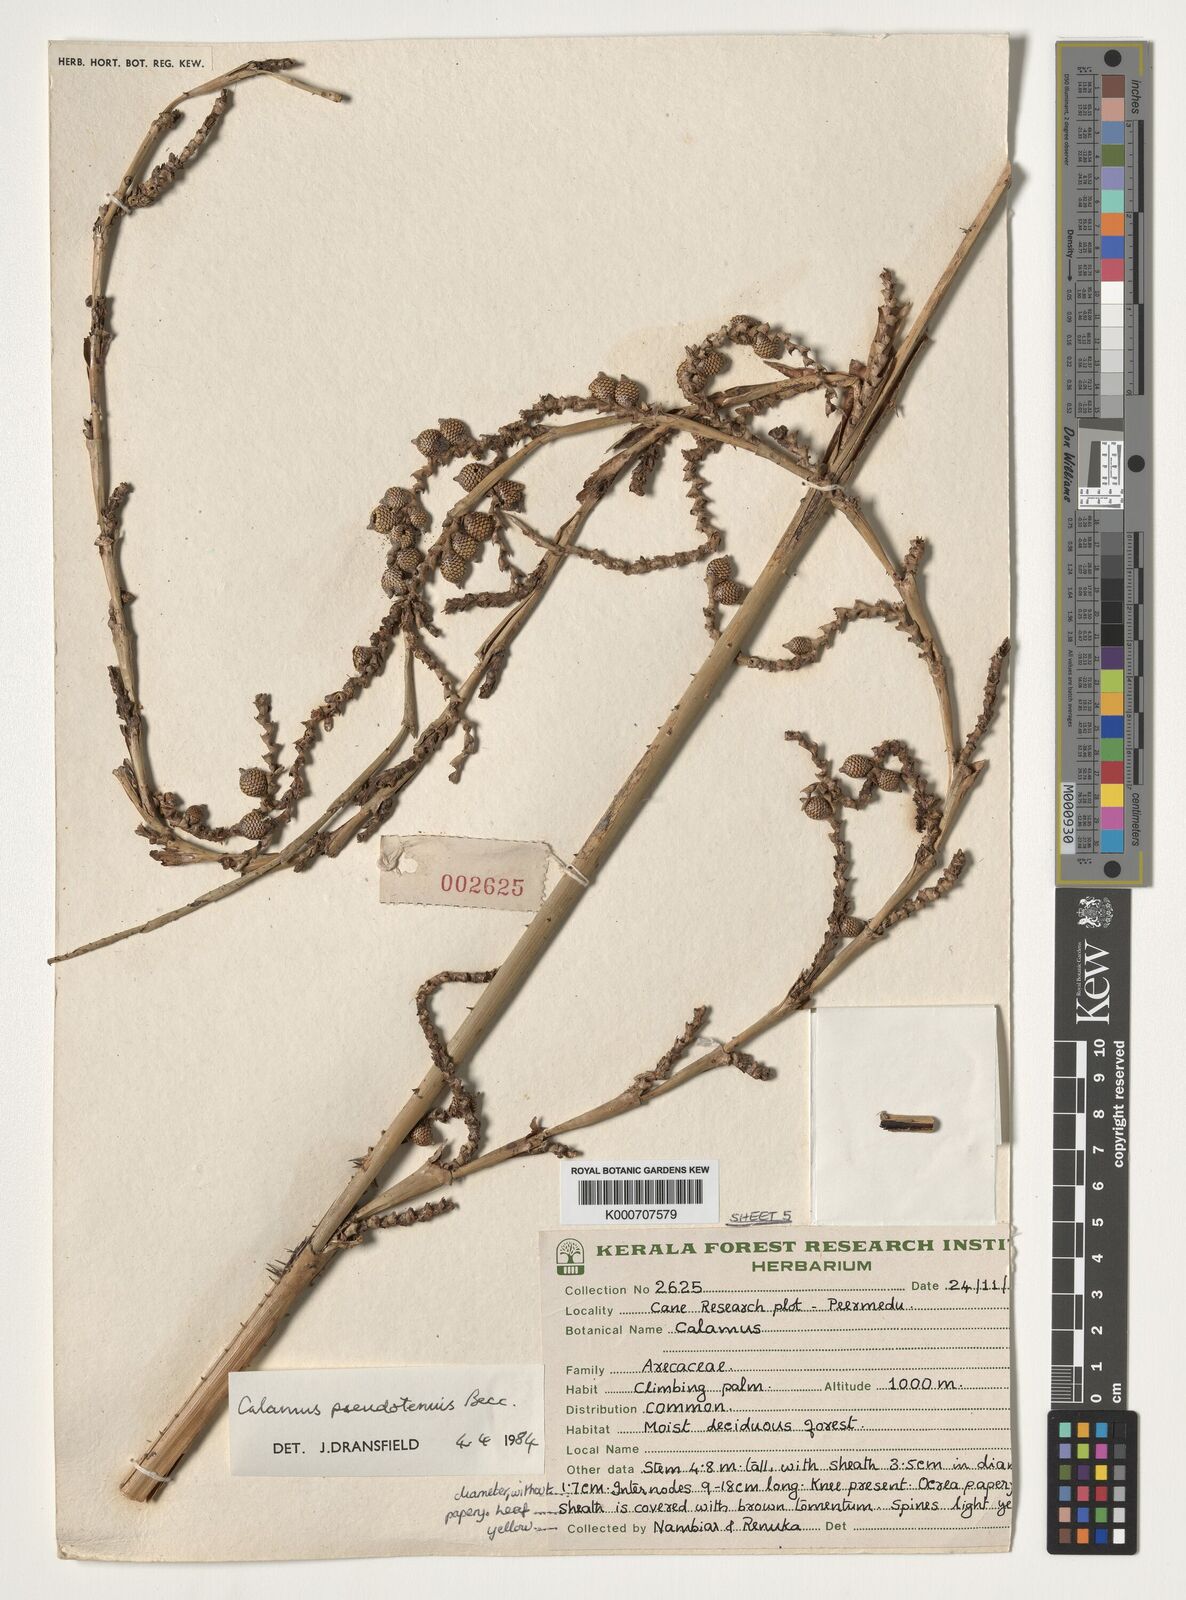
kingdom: Plantae
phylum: Tracheophyta
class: Liliopsida
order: Arecales
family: Arecaceae
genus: Calamus
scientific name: Calamus pseudotenuis
